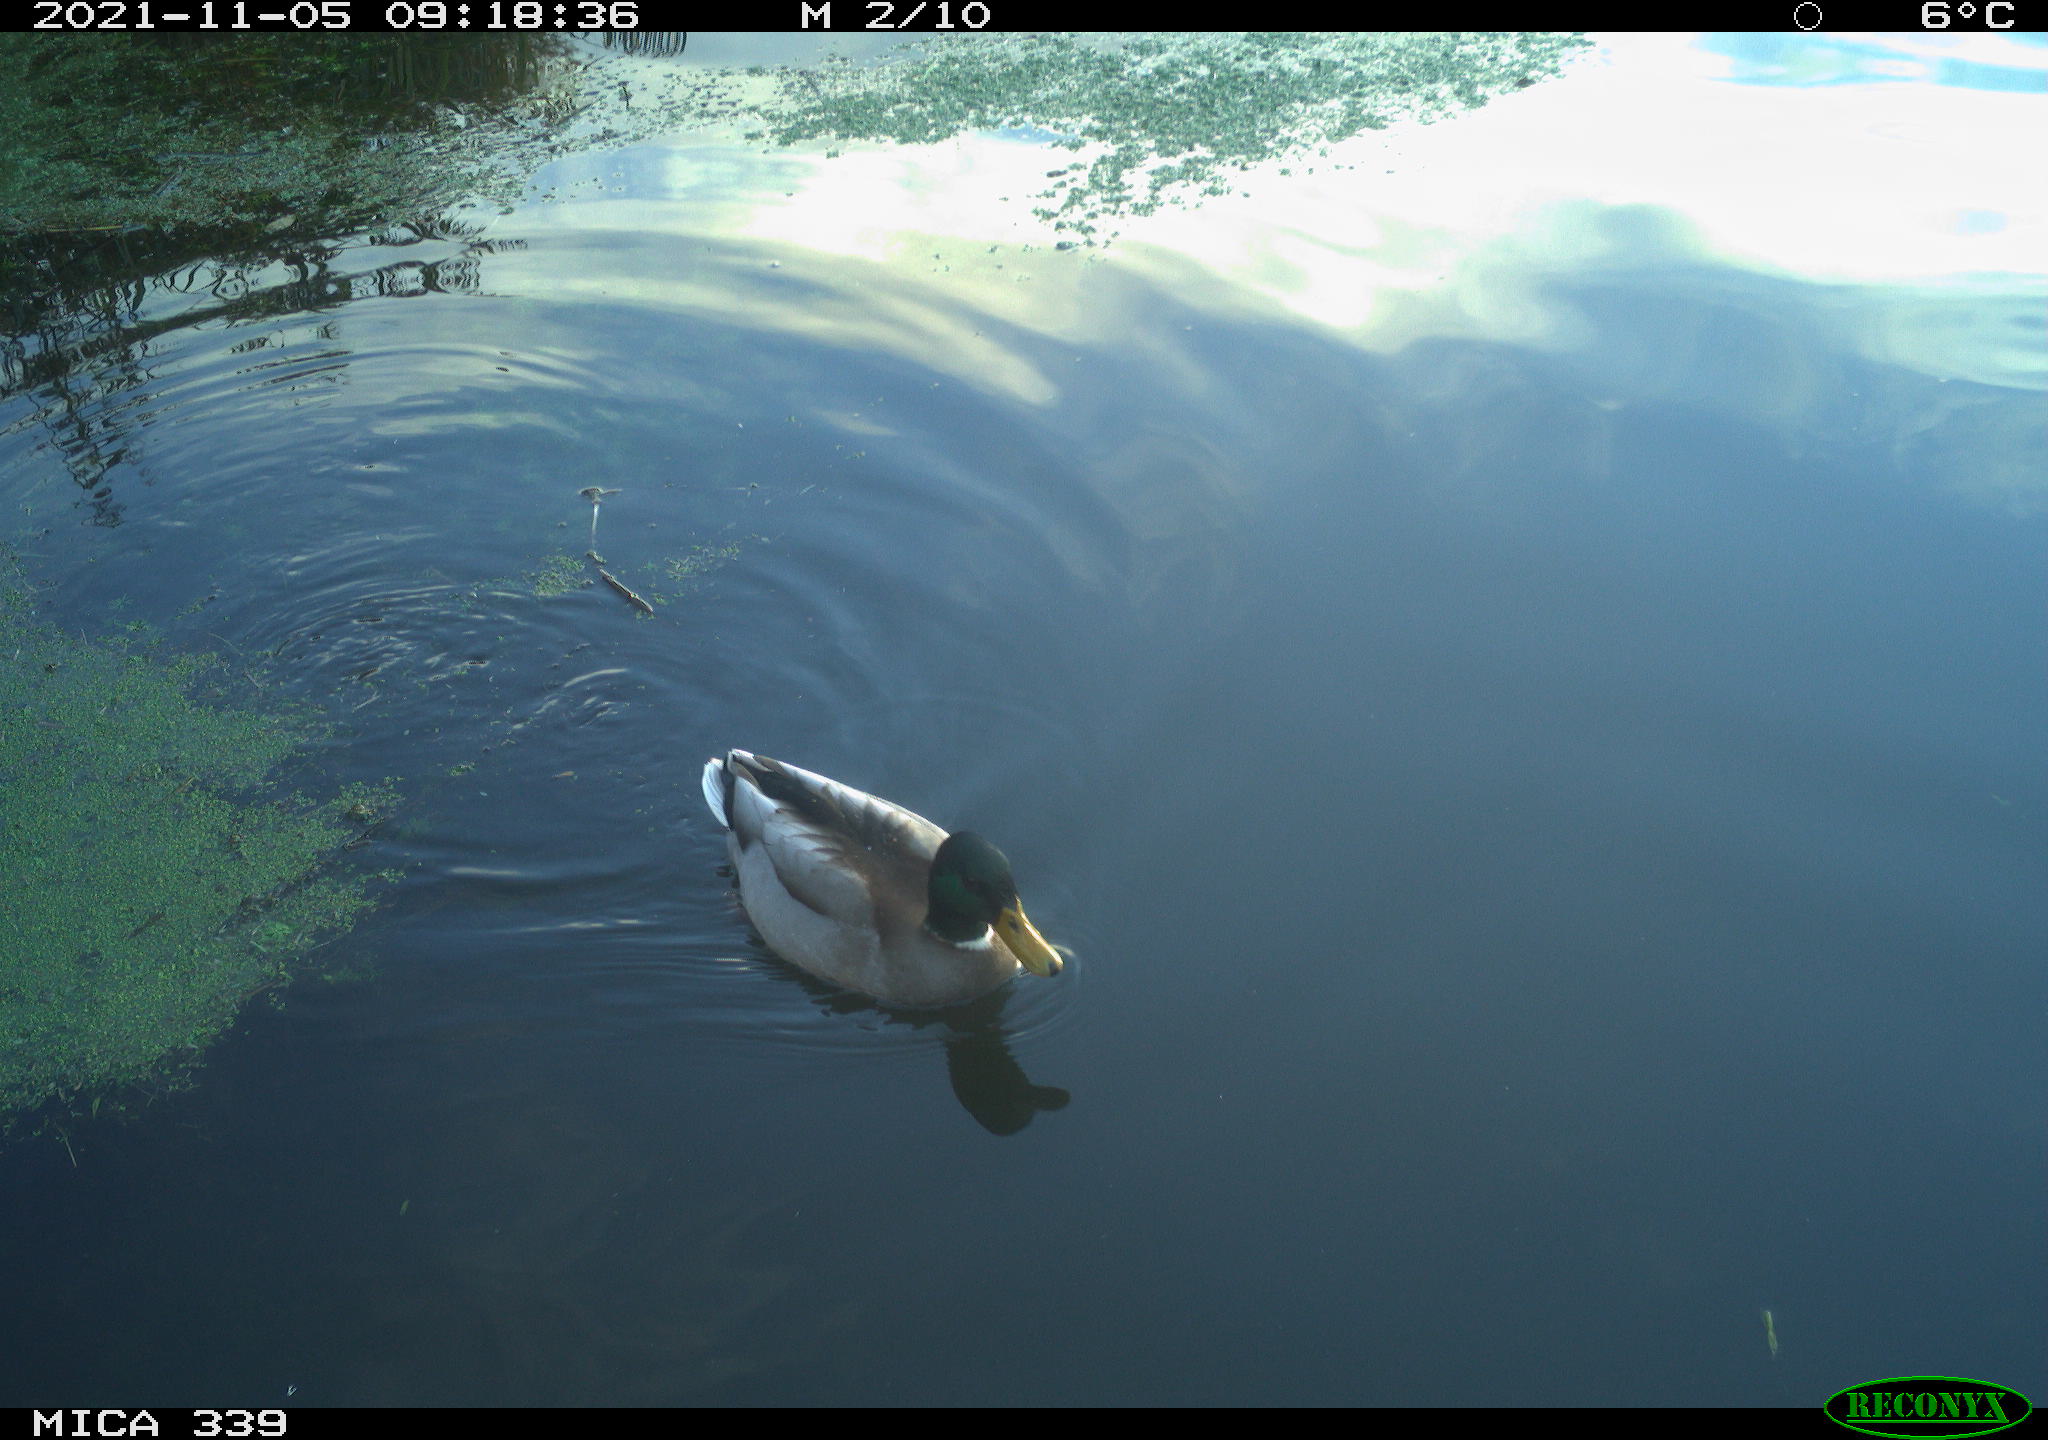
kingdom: Animalia
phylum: Chordata
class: Aves
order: Anseriformes
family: Anatidae
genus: Anas
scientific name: Anas platyrhynchos
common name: Mallard
